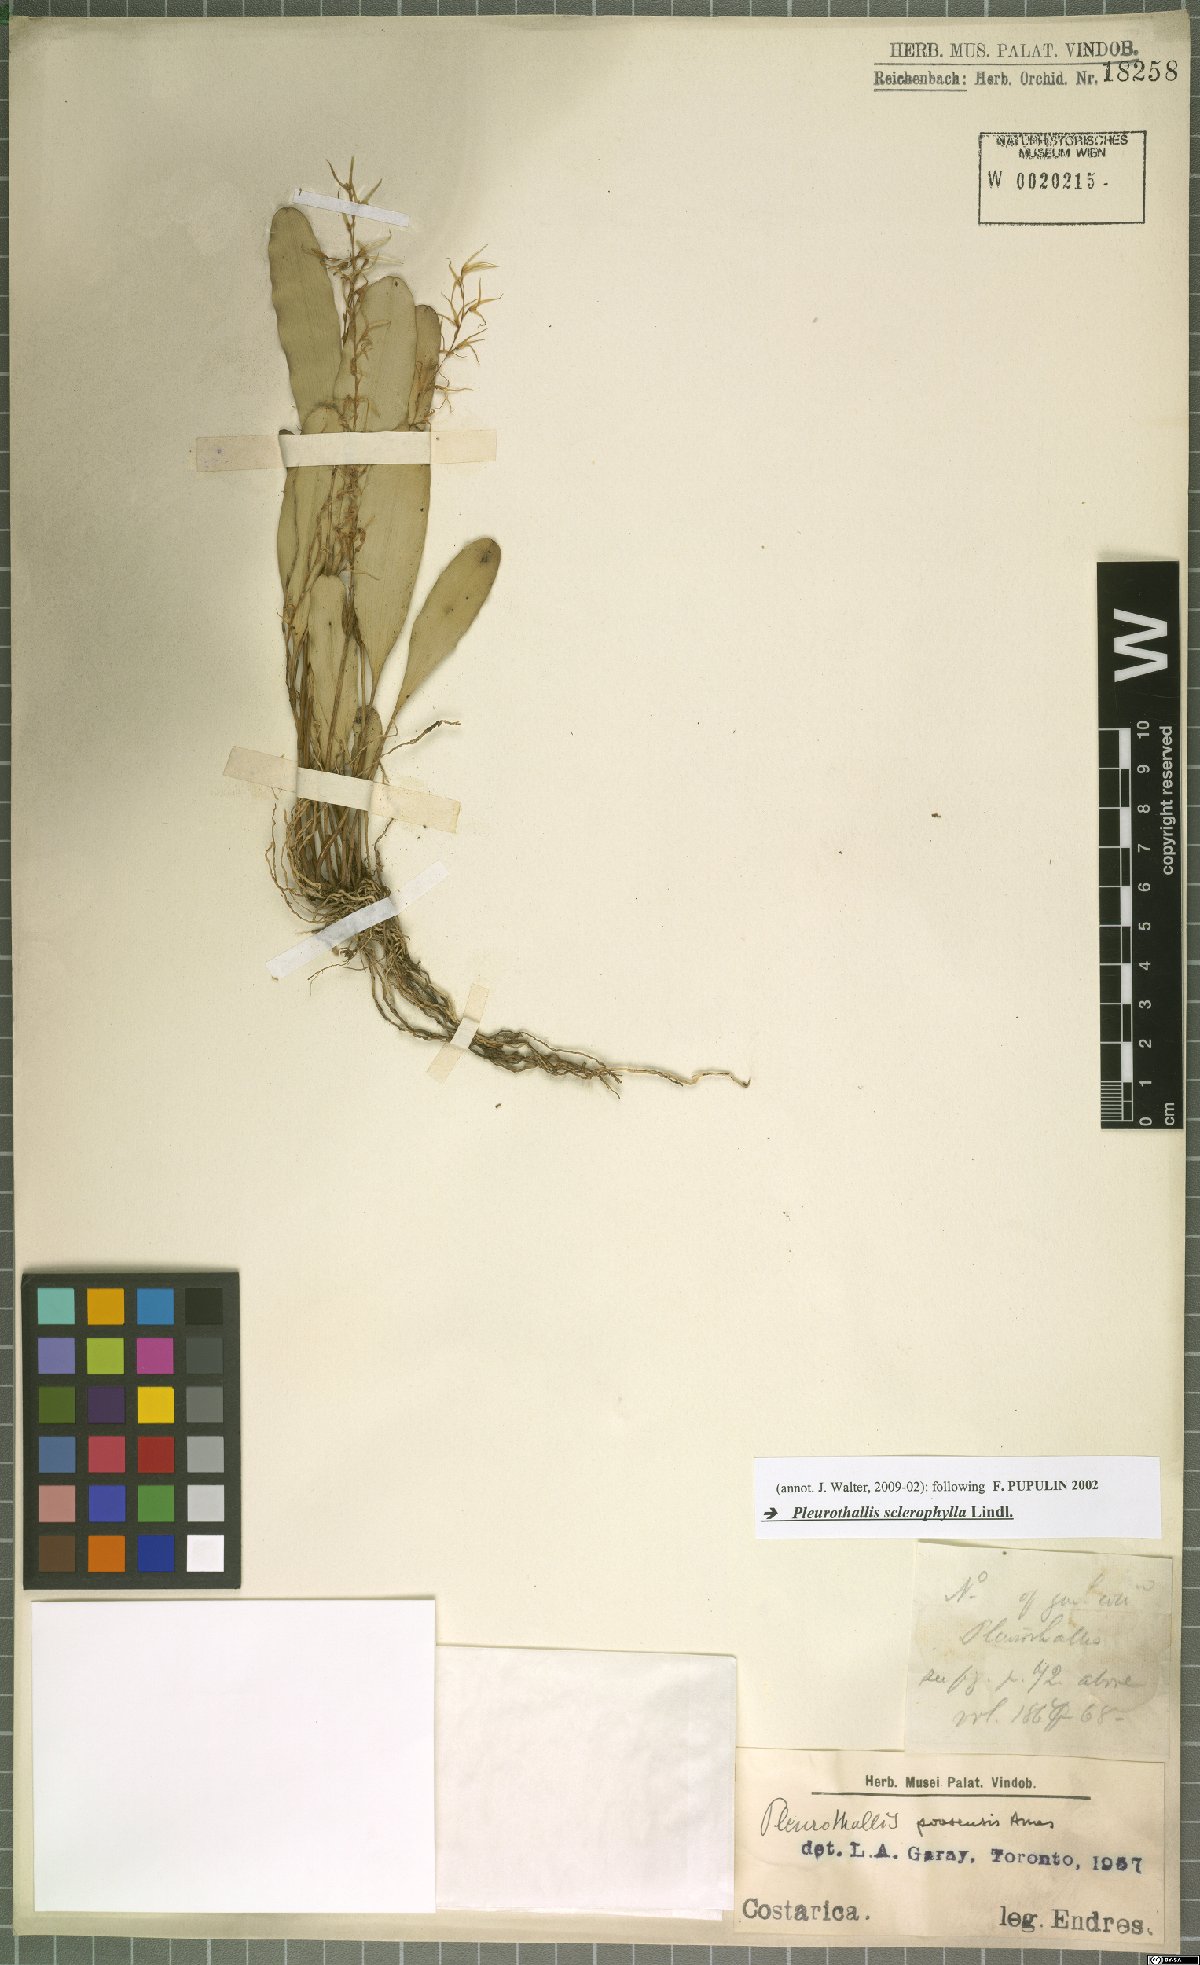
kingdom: Plantae
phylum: Tracheophyta
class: Liliopsida
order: Asparagales
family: Orchidaceae
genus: Stelis
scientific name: Stelis sclerophylla
